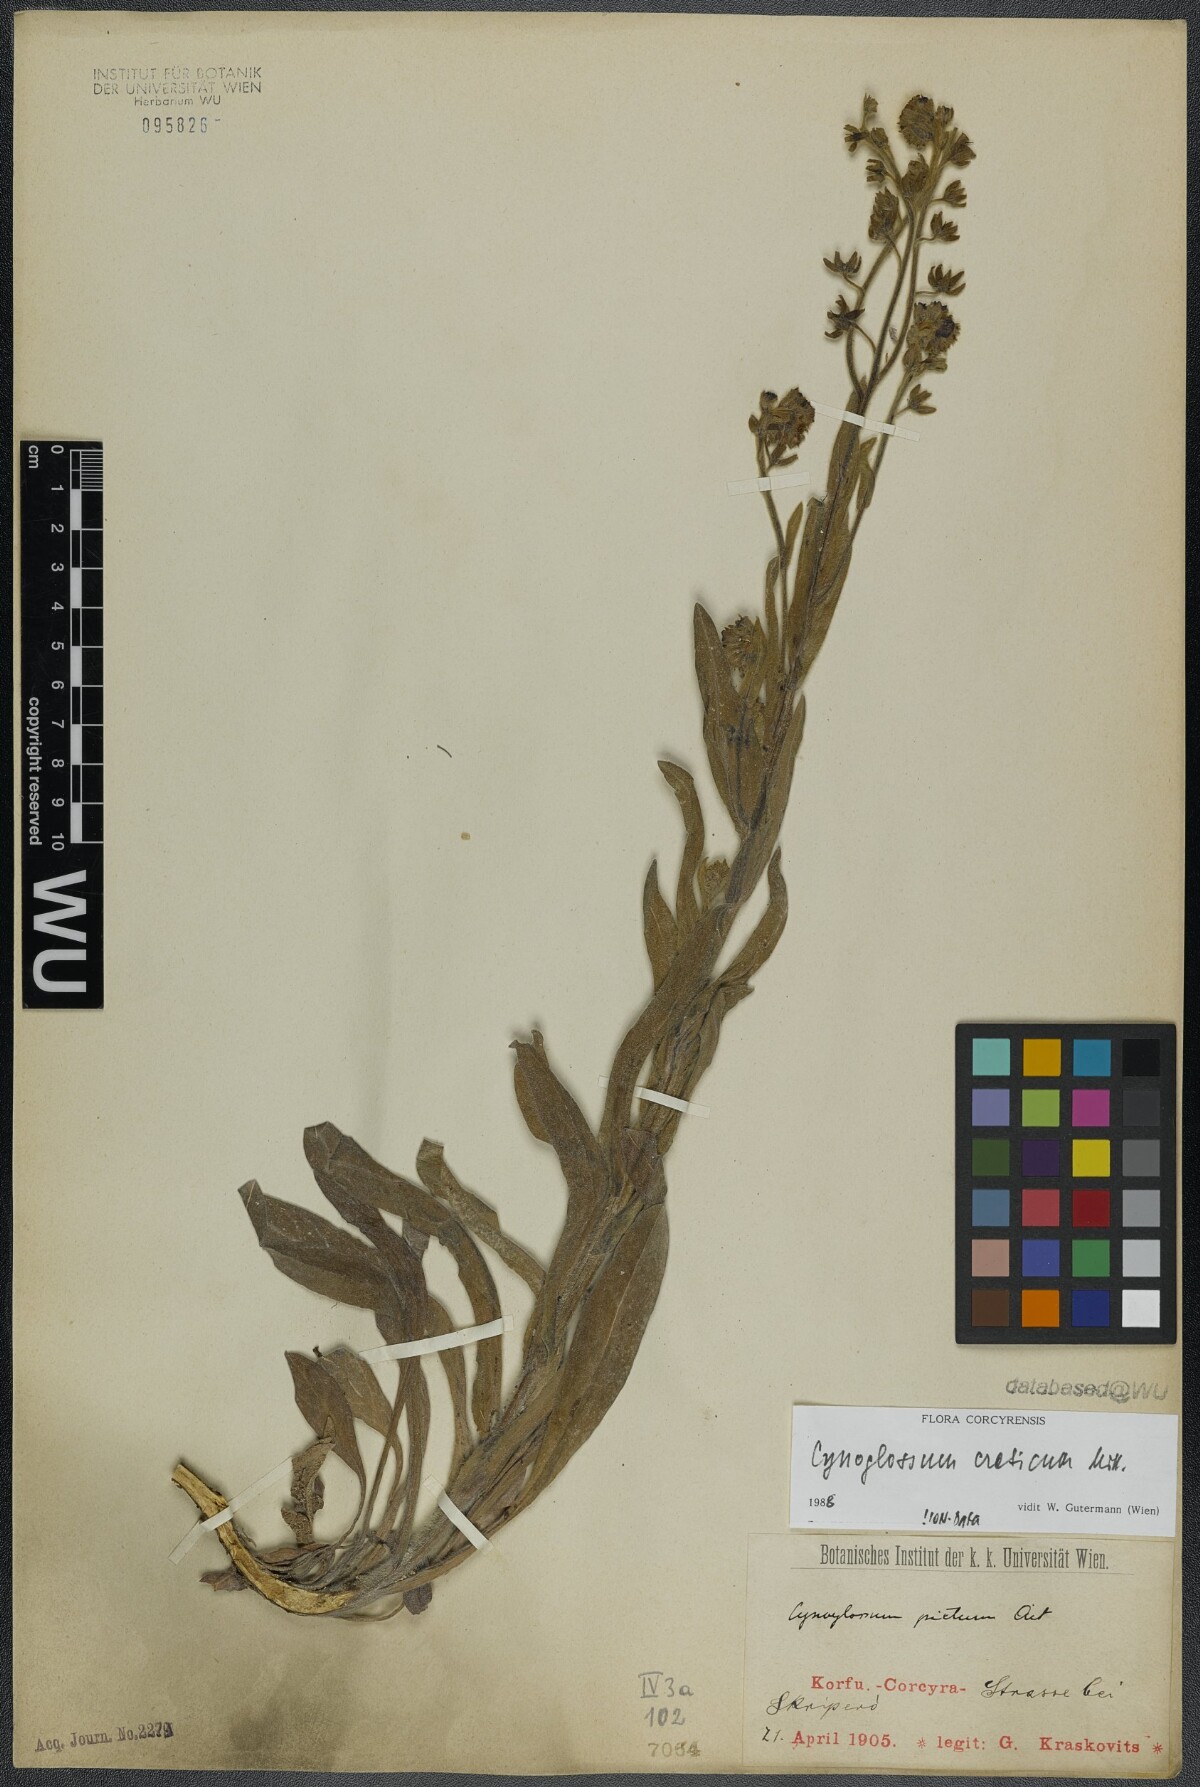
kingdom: Plantae
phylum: Tracheophyta
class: Magnoliopsida
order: Boraginales
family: Boraginaceae
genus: Cynoglossum
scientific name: Cynoglossum creticum
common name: Blue hound's tongue
